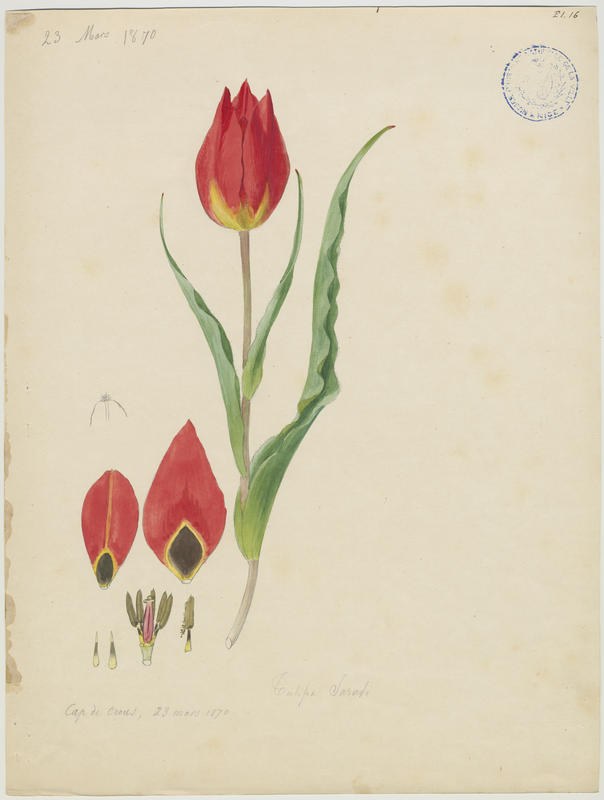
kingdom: Plantae
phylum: Tracheophyta
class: Liliopsida
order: Liliales
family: Liliaceae
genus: Tulipa
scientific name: Tulipa agenensis
